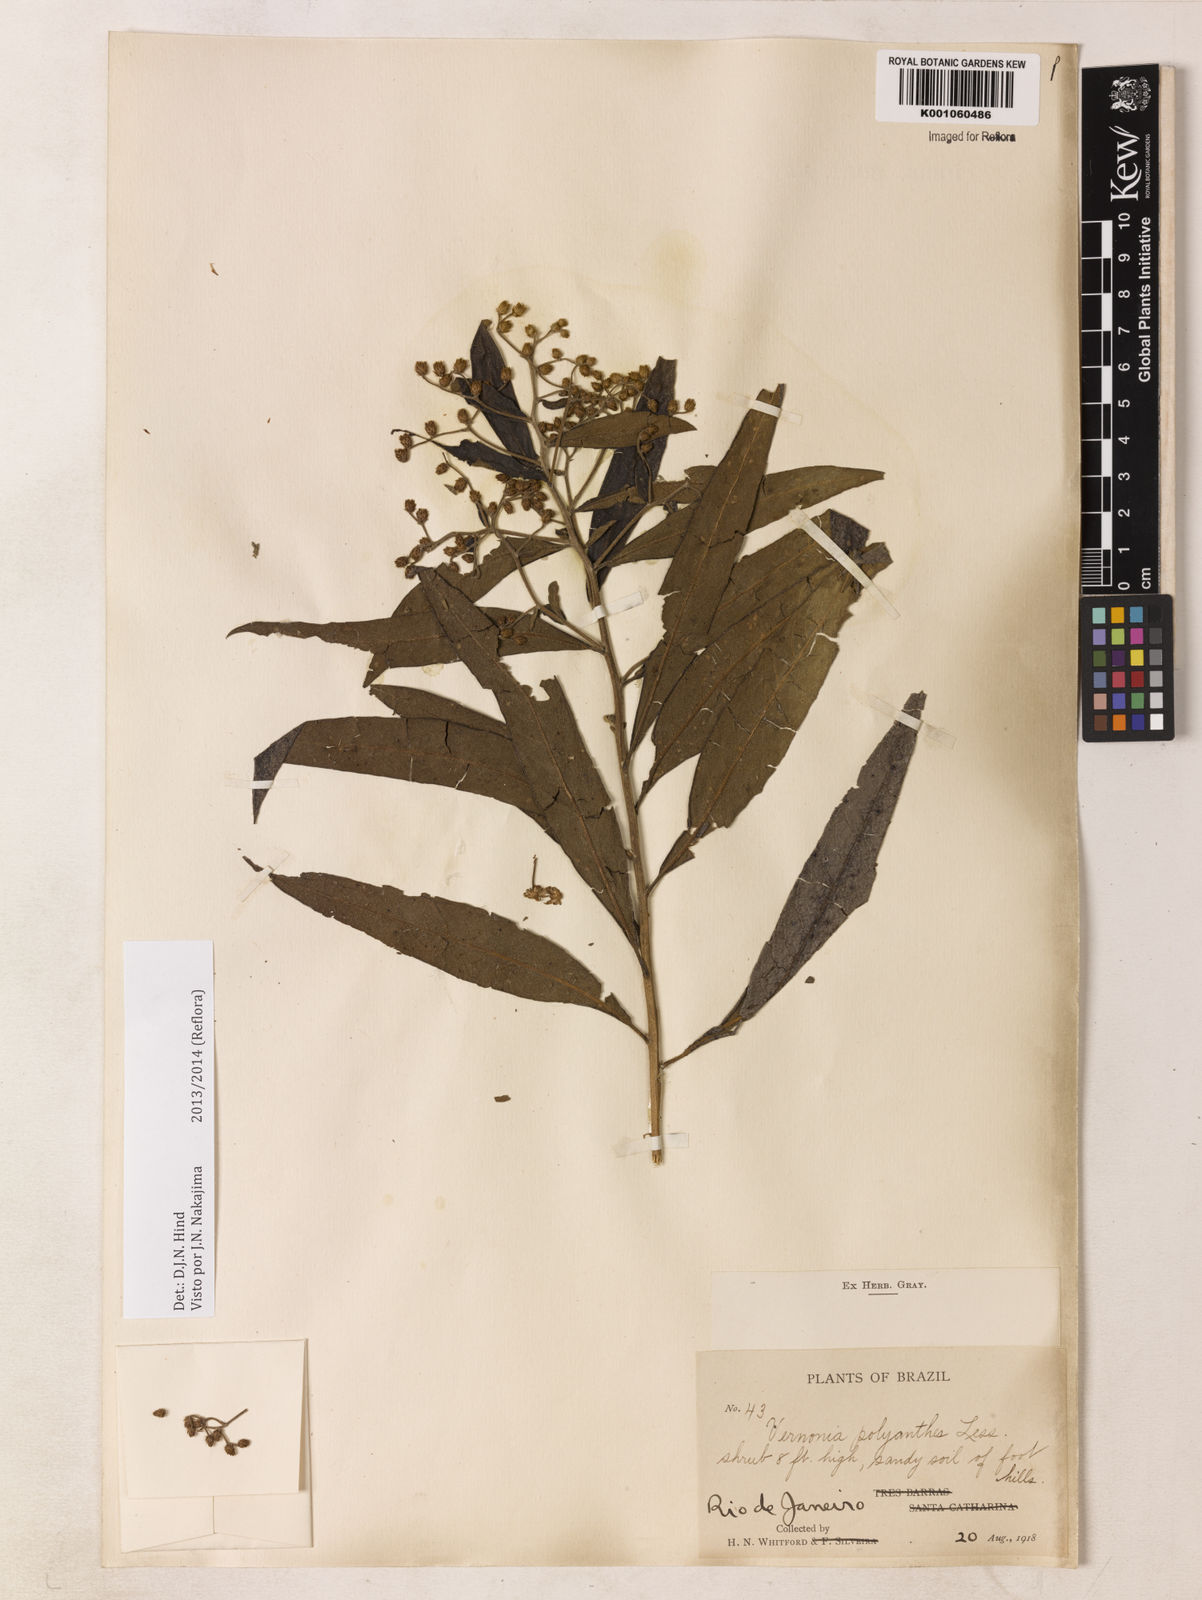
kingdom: Plantae
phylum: Tracheophyta
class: Magnoliopsida
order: Asterales
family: Asteraceae
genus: Vernonanthura
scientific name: Vernonanthura polyanthes
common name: Tree aster
